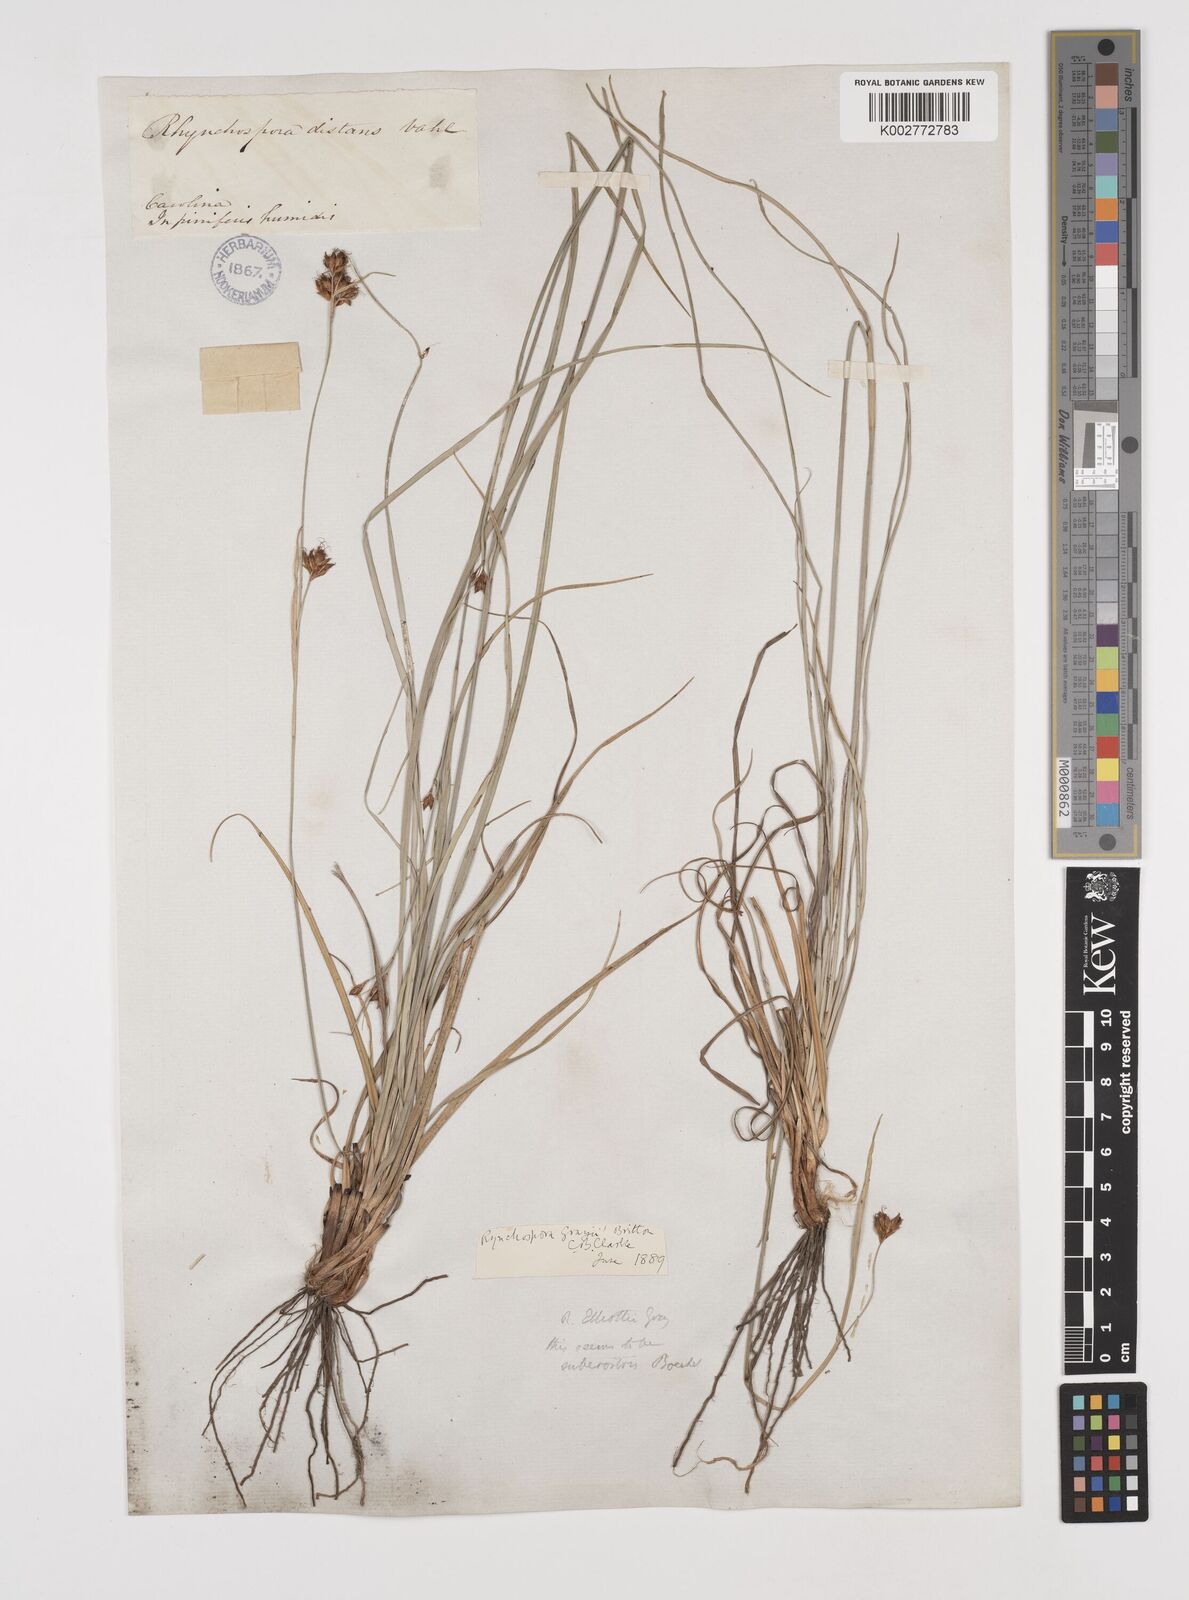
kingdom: Plantae
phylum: Tracheophyta
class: Liliopsida
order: Poales
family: Cyperaceae
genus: Rhynchospora
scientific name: Rhynchospora grayi
